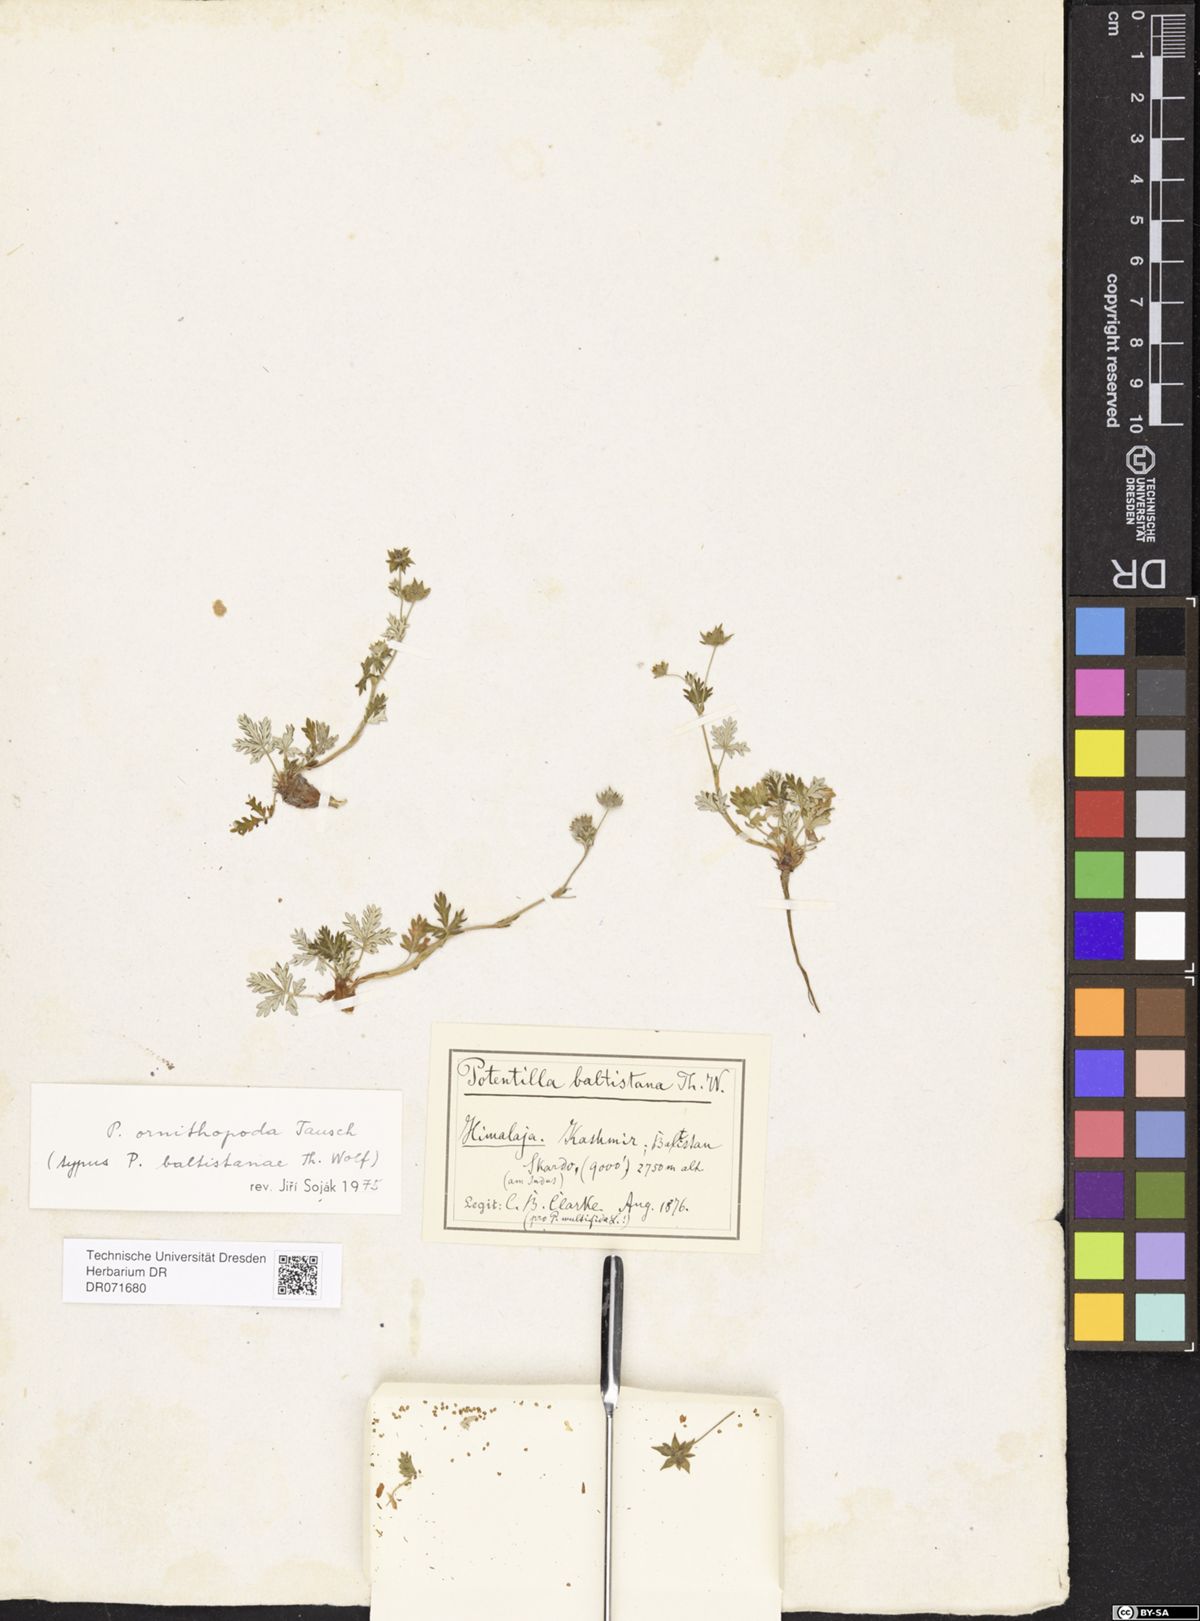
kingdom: Plantae
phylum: Tracheophyta
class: Magnoliopsida
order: Rosales
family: Rosaceae
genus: Potentilla
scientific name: Potentilla ornithopoda
